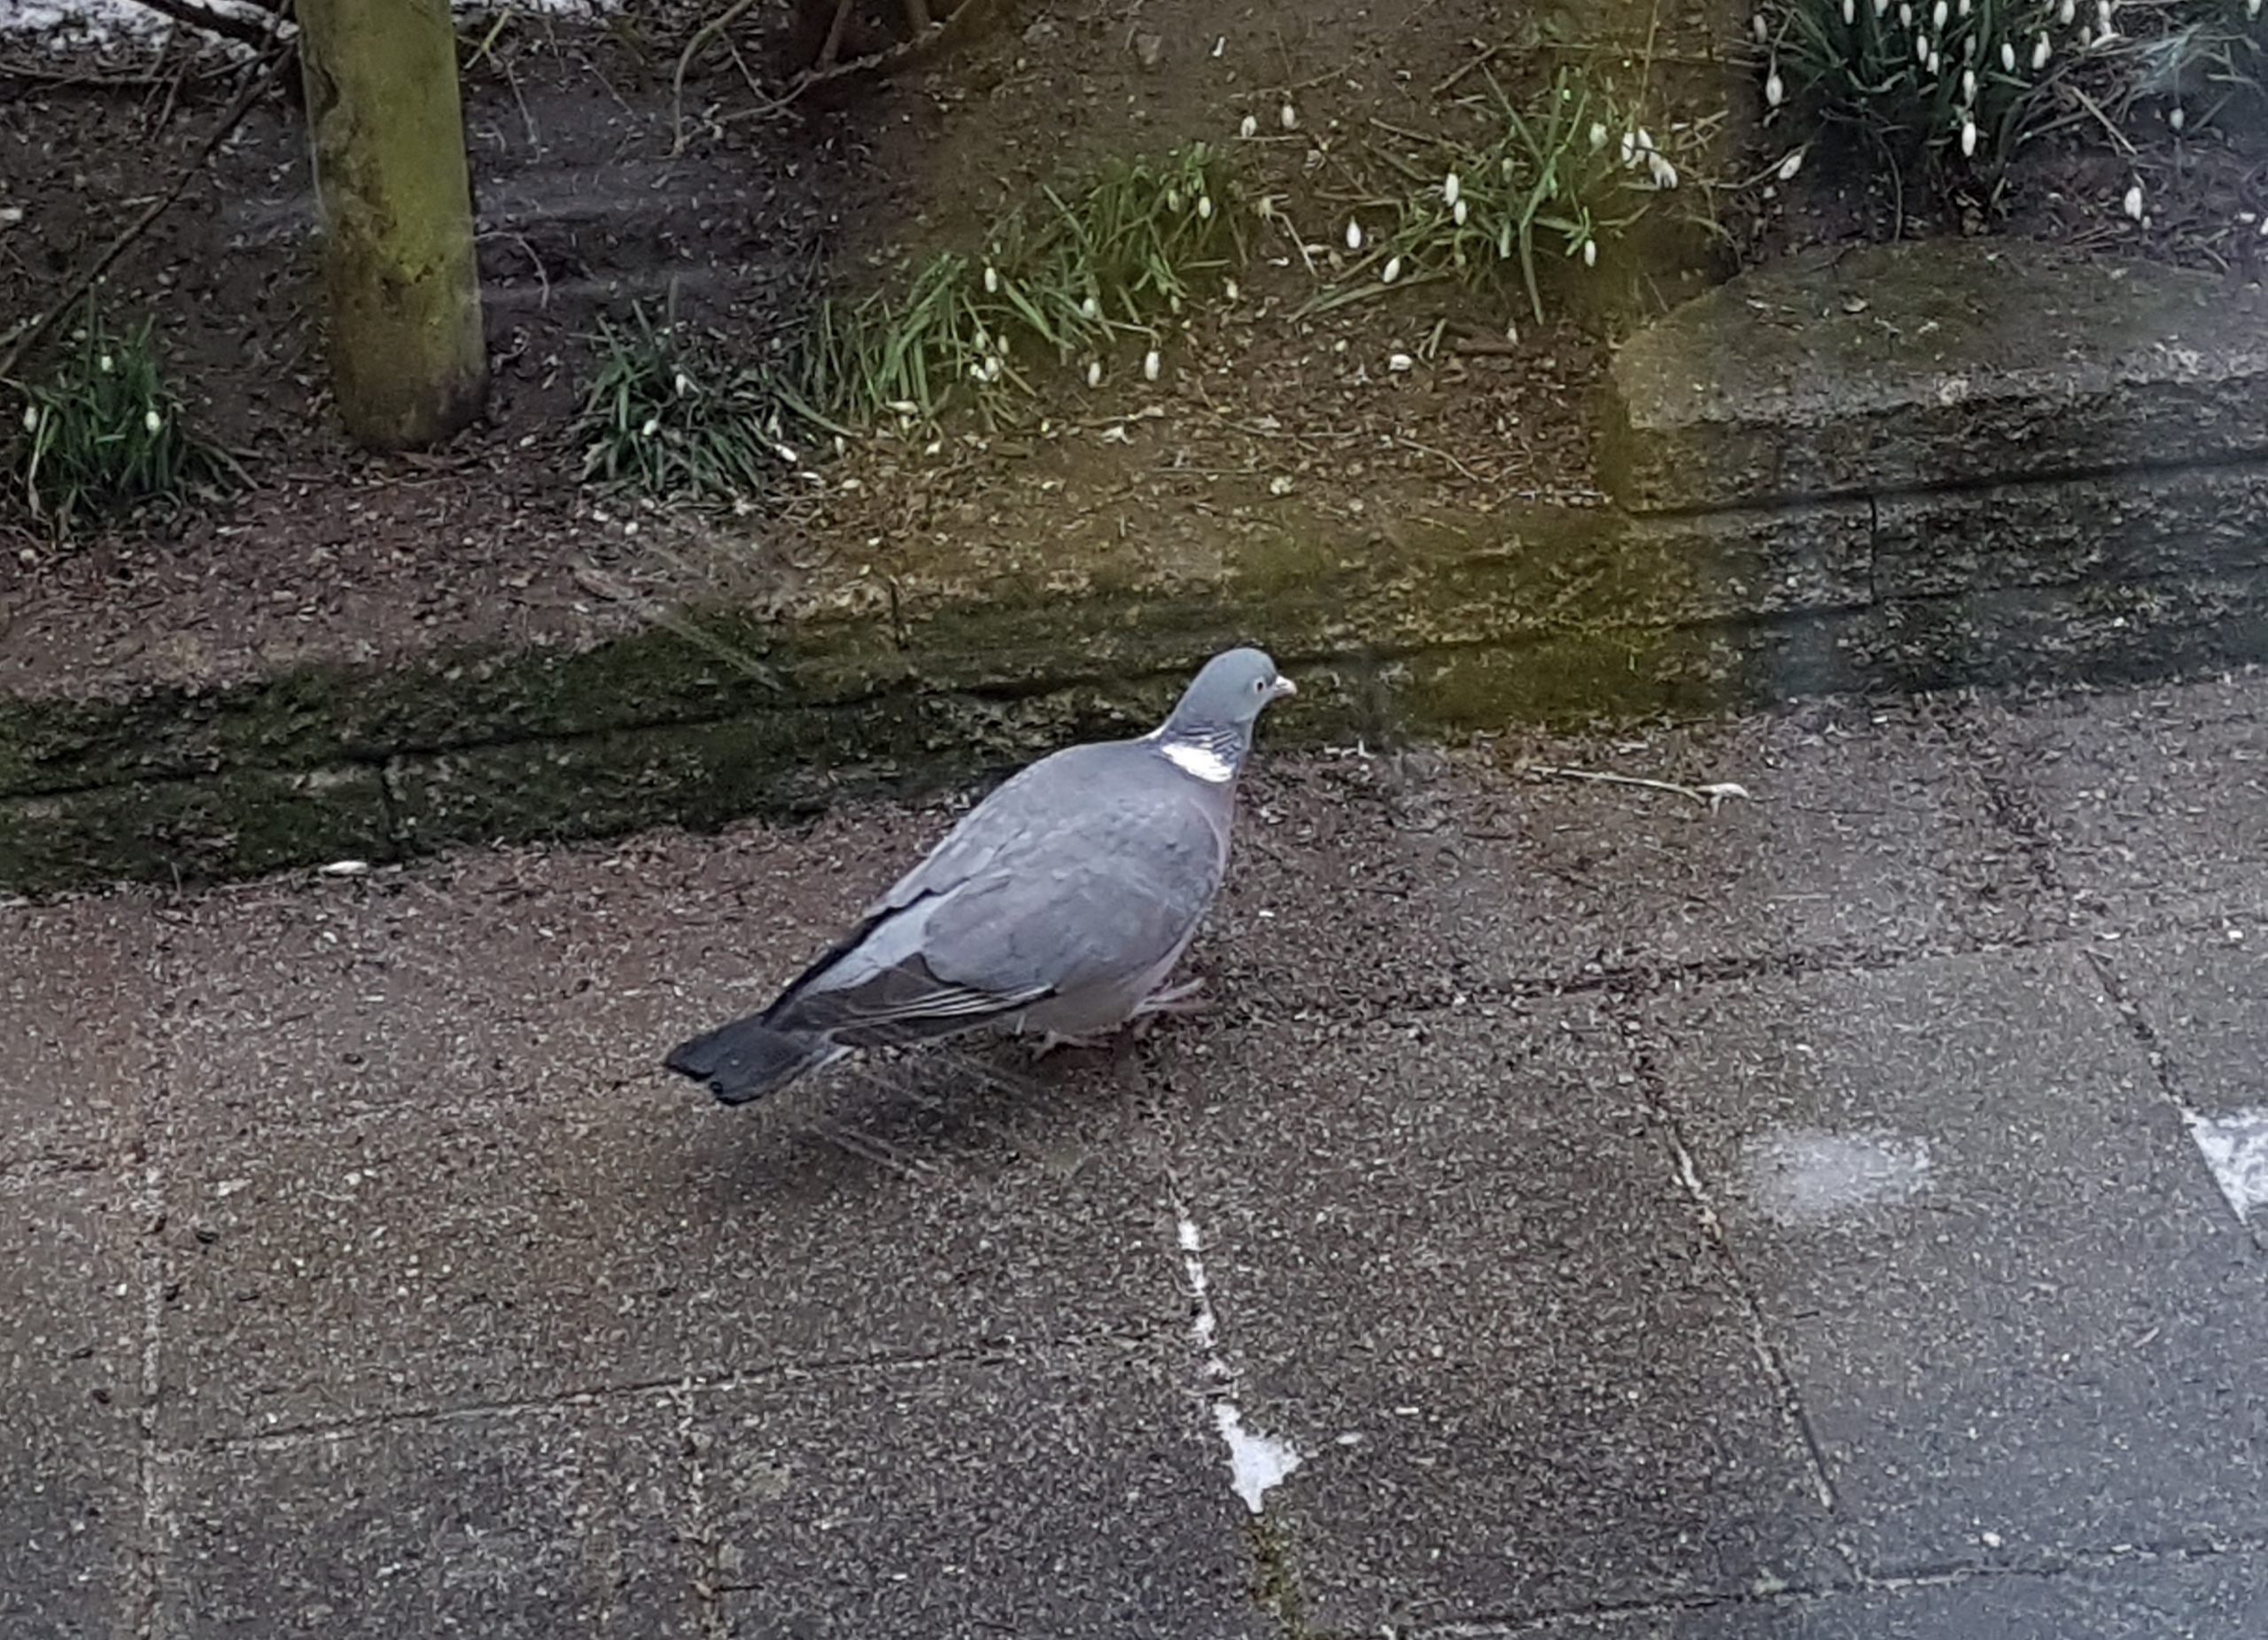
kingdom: Animalia
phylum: Chordata
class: Aves
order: Columbiformes
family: Columbidae
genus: Columba
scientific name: Columba palumbus
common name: Ringdue
